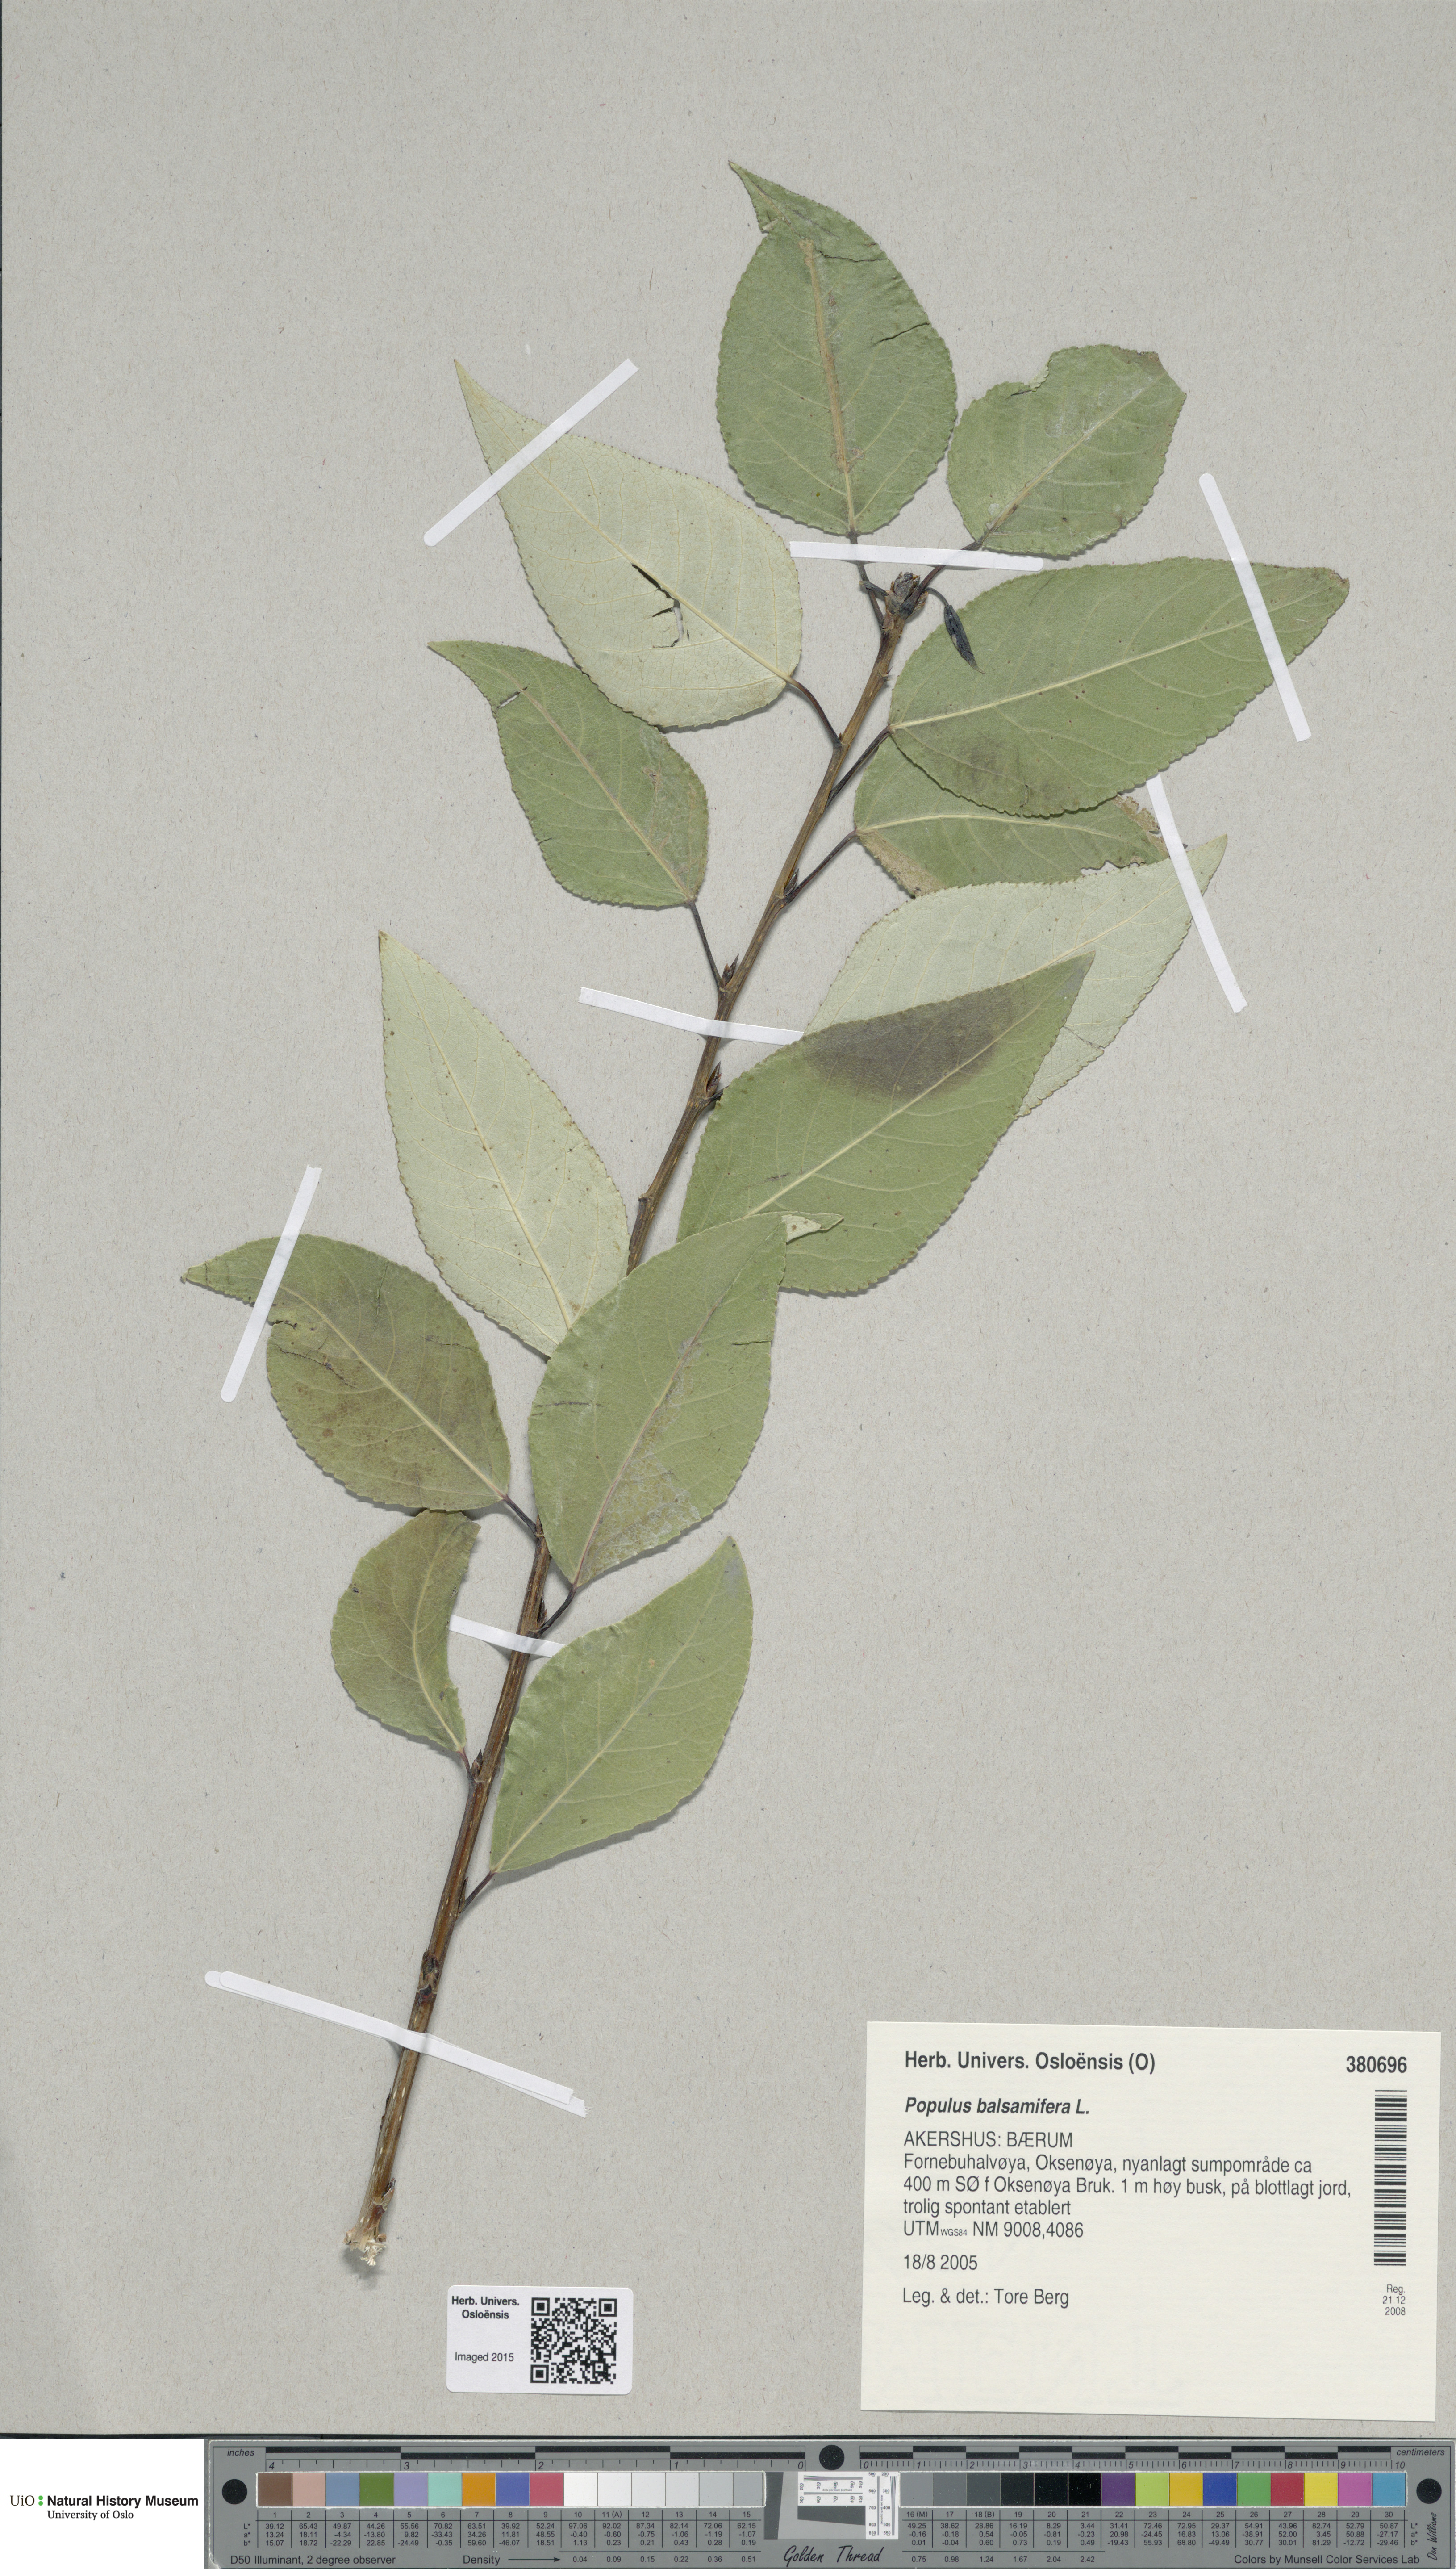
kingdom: Plantae
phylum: Tracheophyta
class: Magnoliopsida
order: Malpighiales
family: Salicaceae
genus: Populus
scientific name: Populus balsamifera
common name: Balsam poplar
